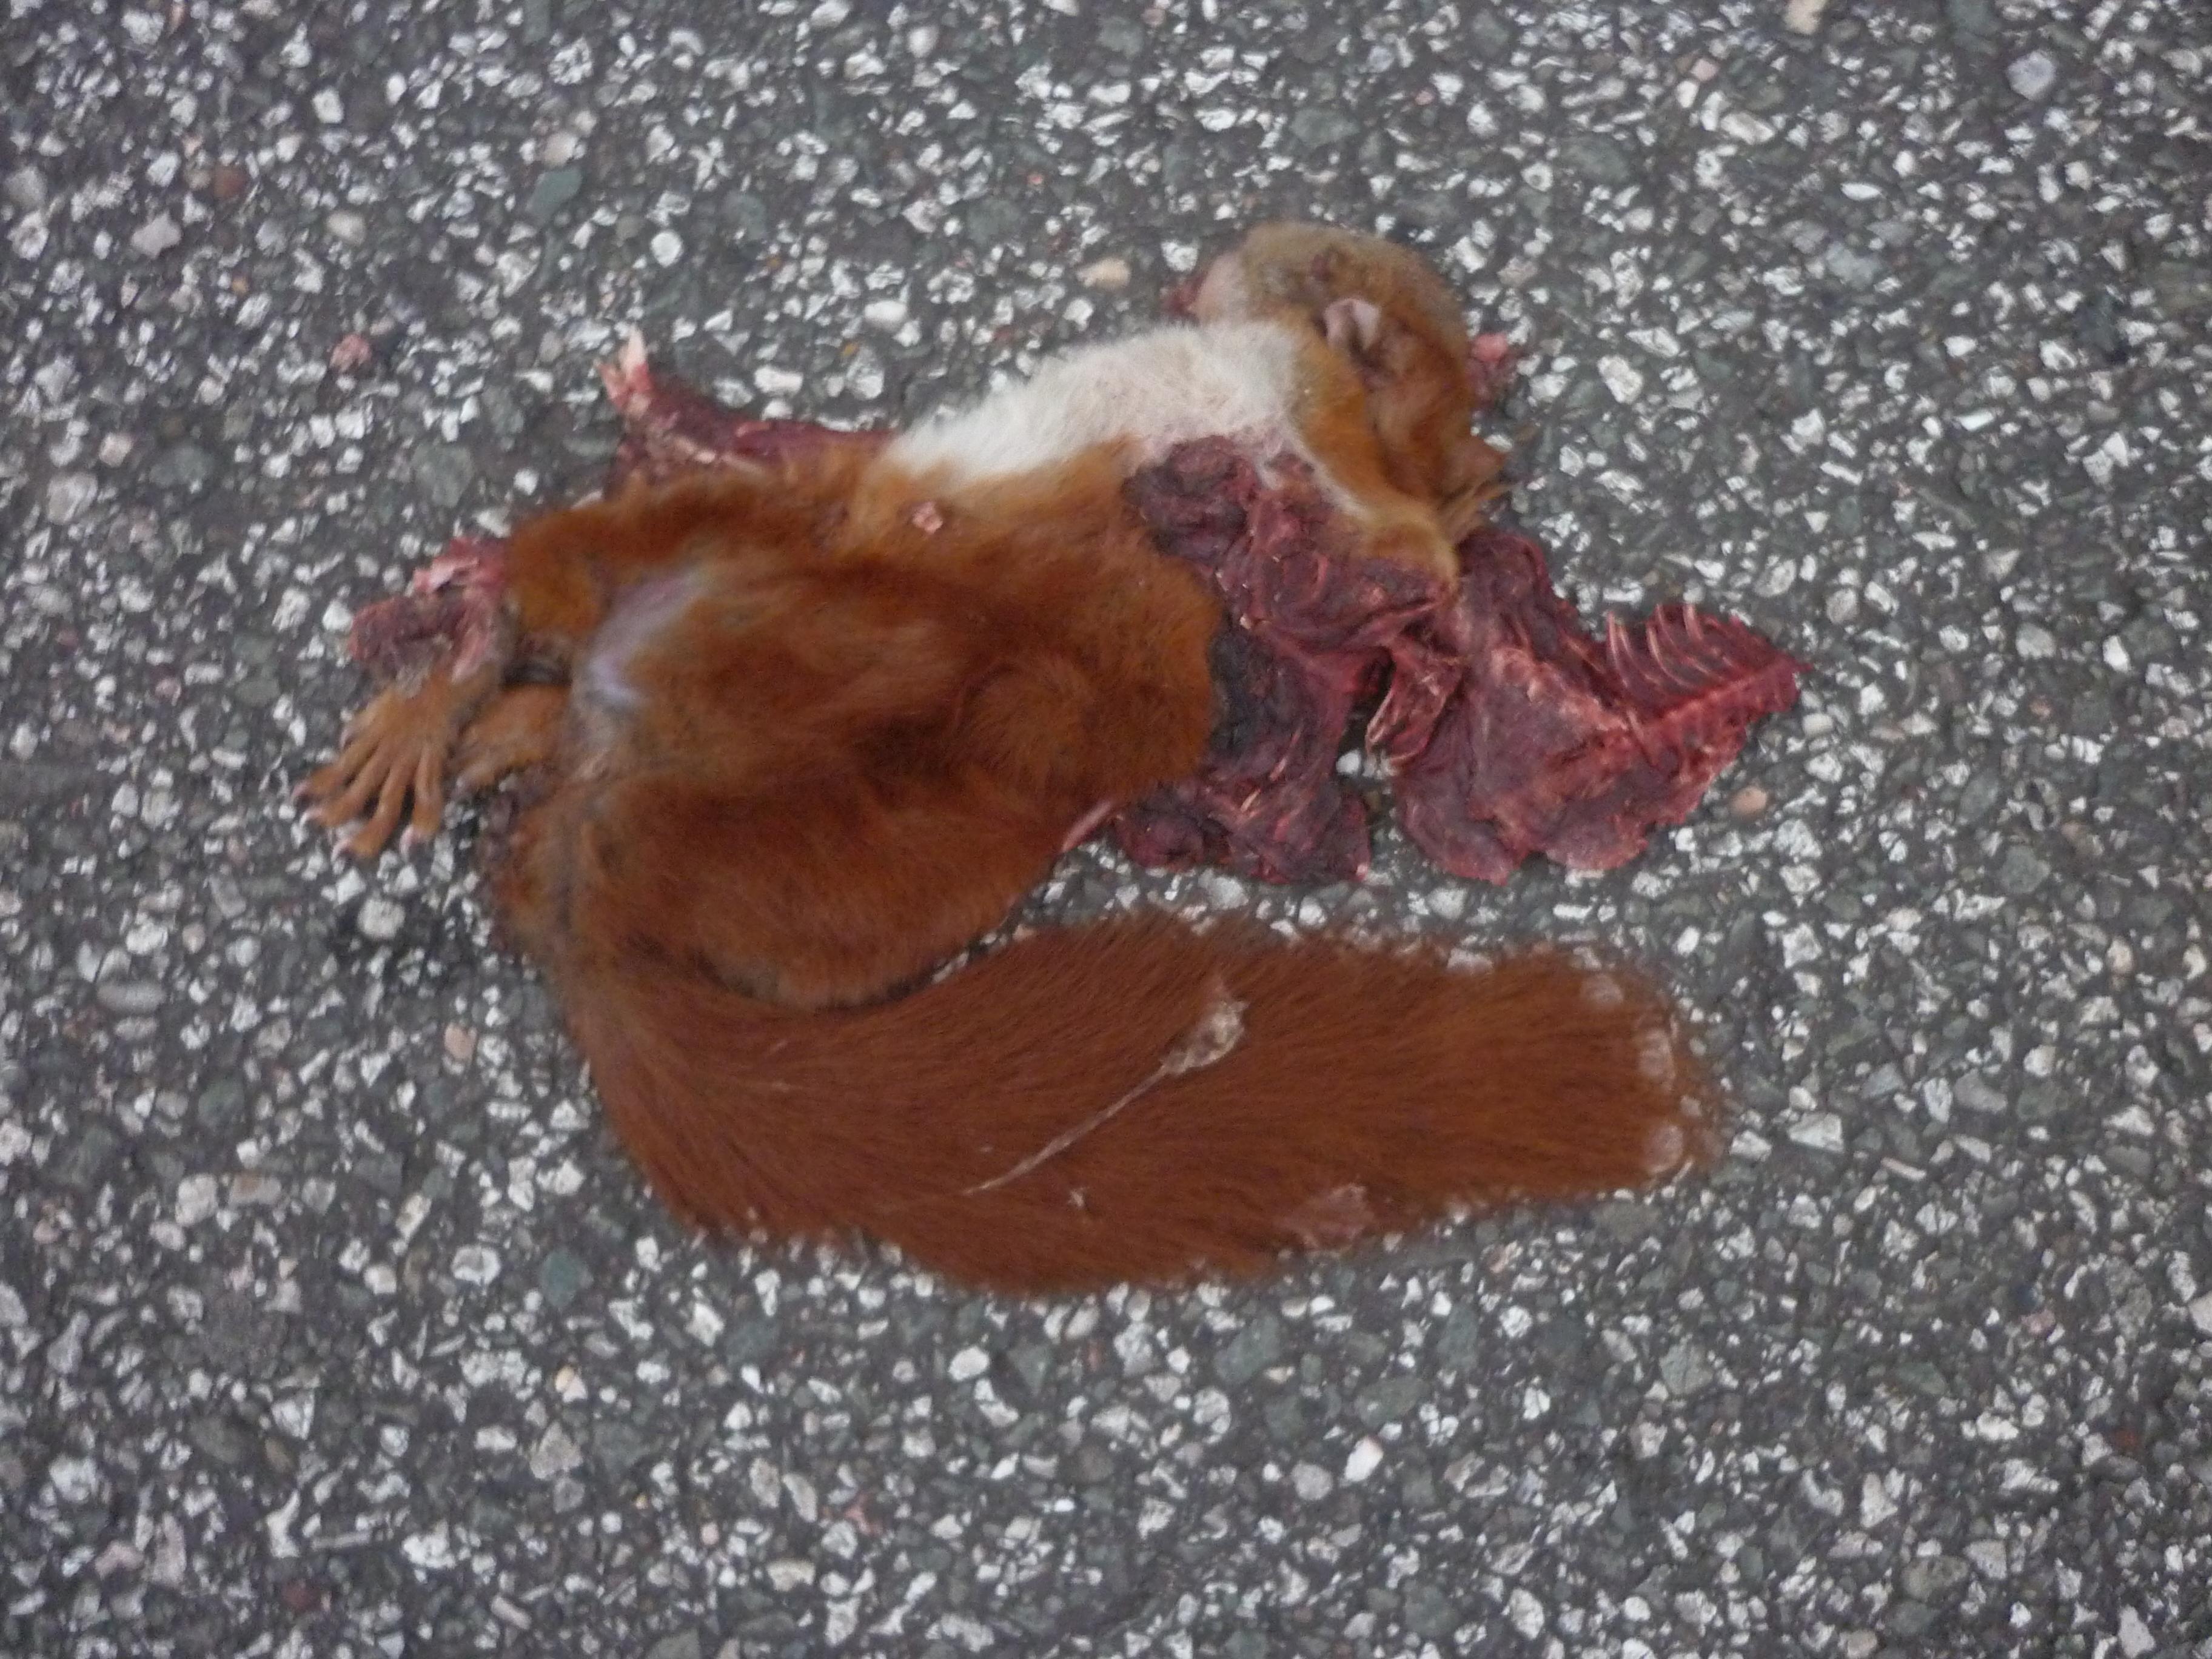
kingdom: Animalia
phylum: Chordata
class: Mammalia
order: Rodentia
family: Sciuridae
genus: Sciurus
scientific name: Sciurus vulgaris
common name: Eurasian red squirrel
